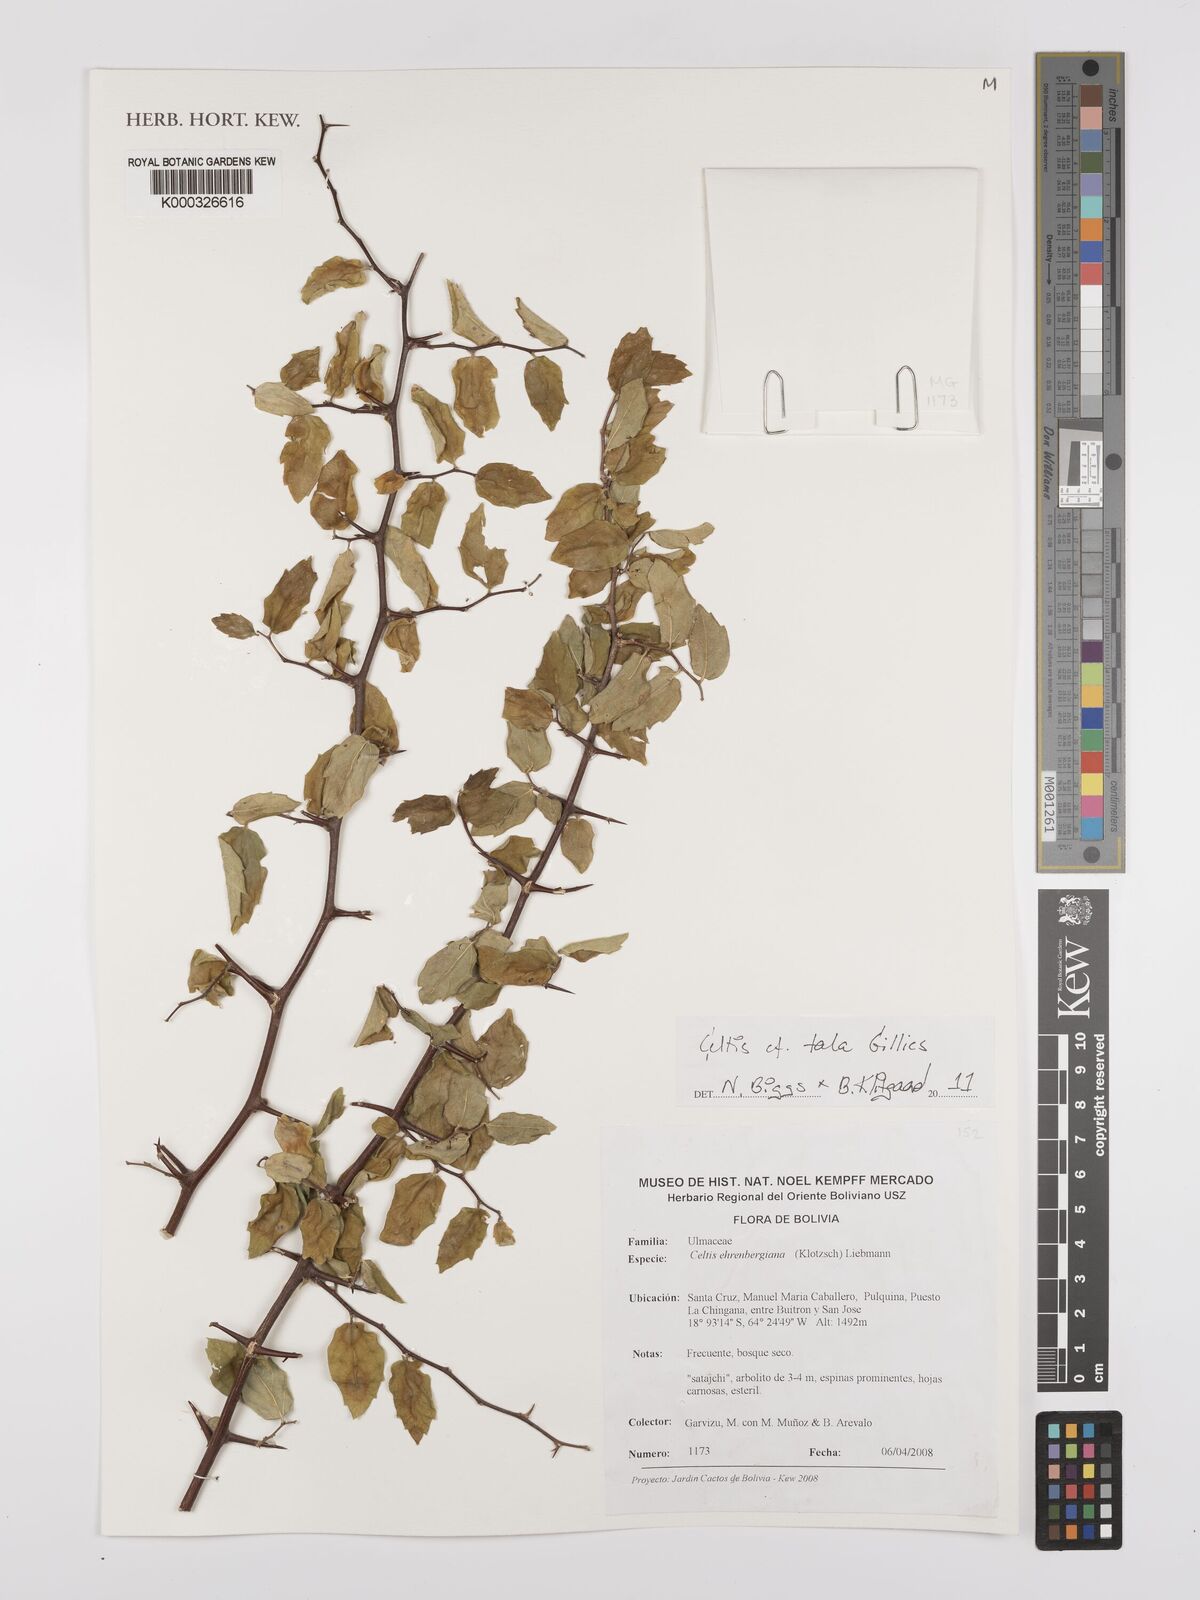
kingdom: Plantae
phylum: Tracheophyta
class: Magnoliopsida
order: Rosales
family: Cannabaceae
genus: Celtis
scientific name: Celtis tala
